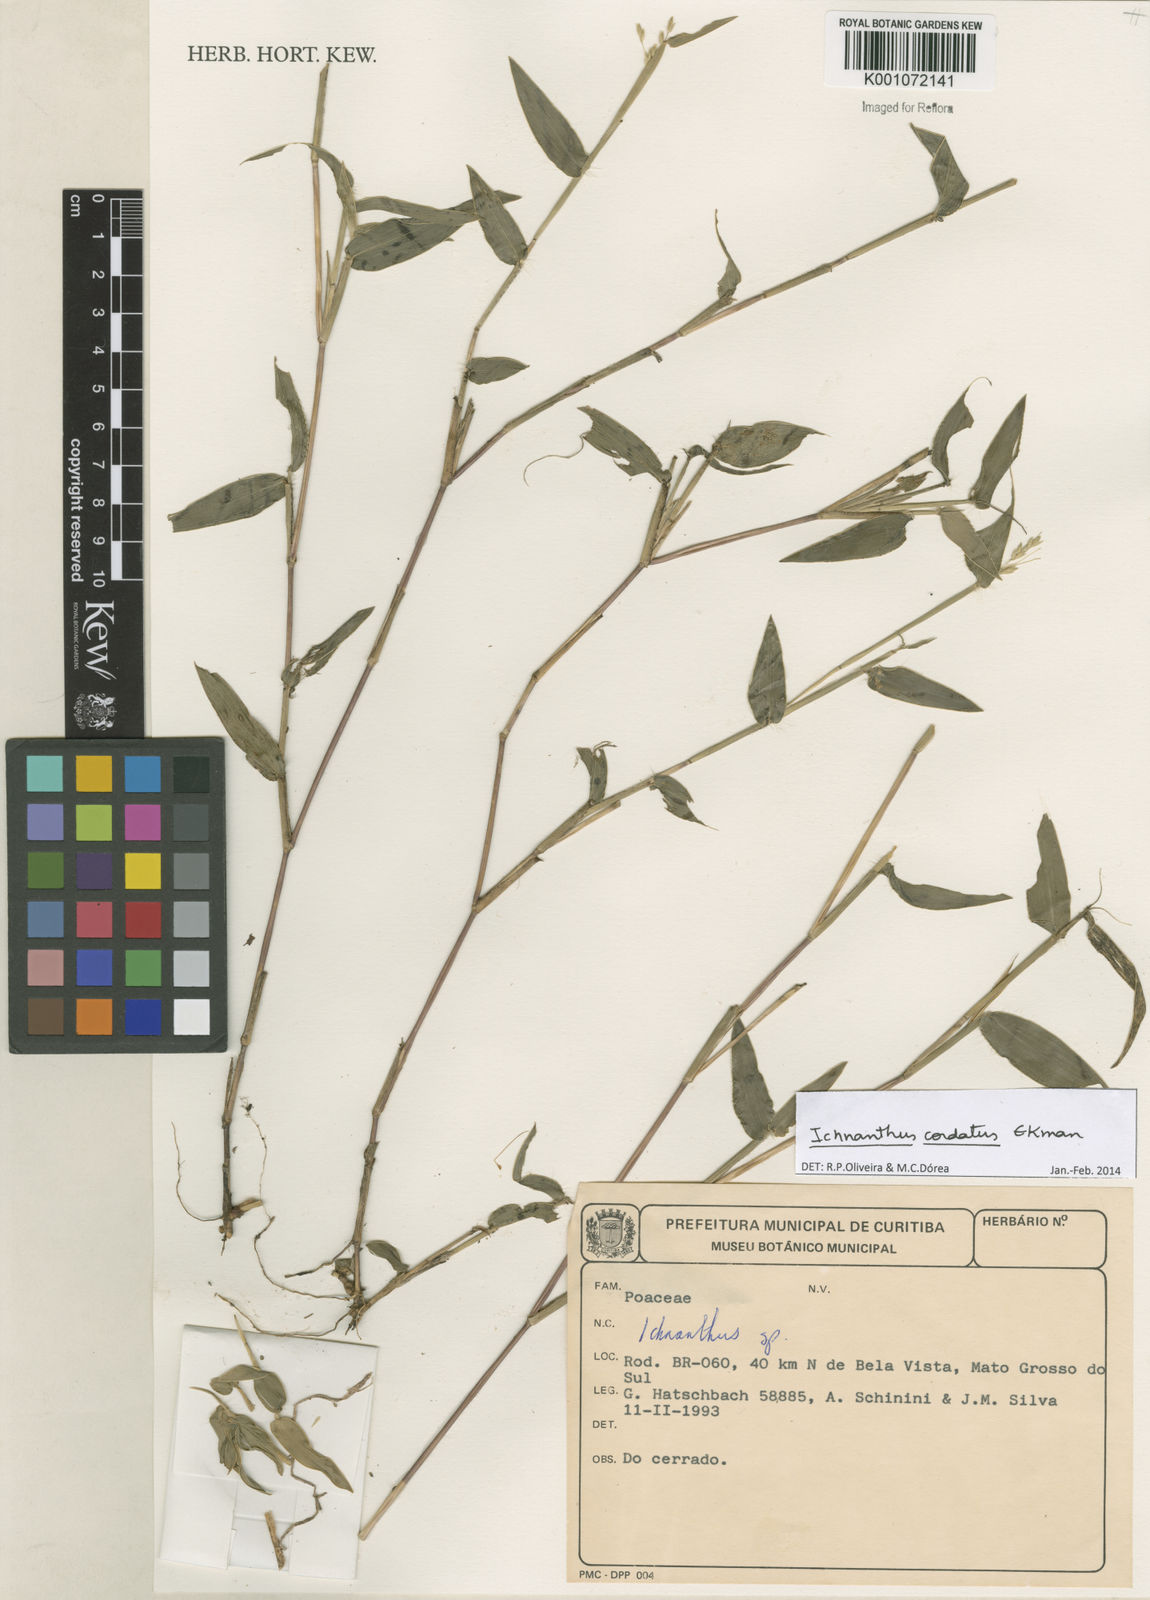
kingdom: Plantae
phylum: Tracheophyta
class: Liliopsida
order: Poales
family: Poaceae
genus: Oedochloa
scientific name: Oedochloa mayarensis
